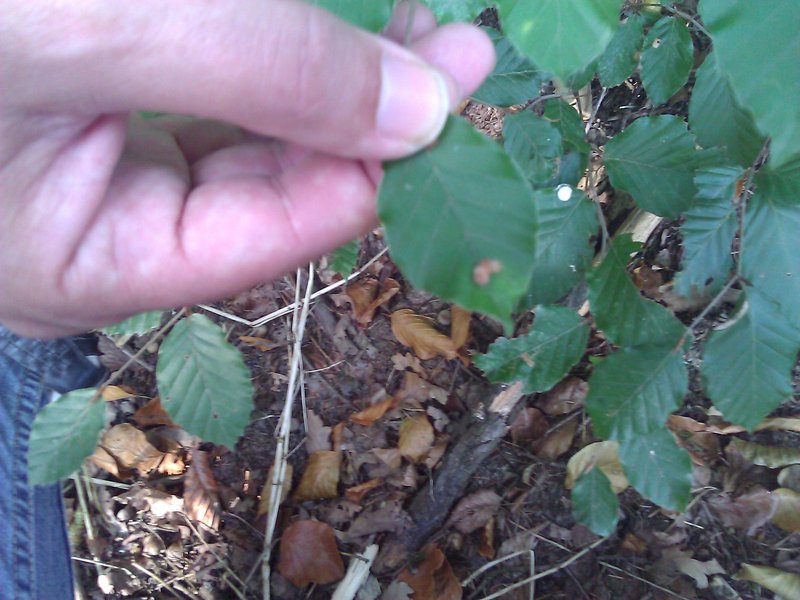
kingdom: Animalia
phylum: Arthropoda
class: Insecta
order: Diptera
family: Cecidomyiidae
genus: Hartigiola
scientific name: Hartigiola annulipes
